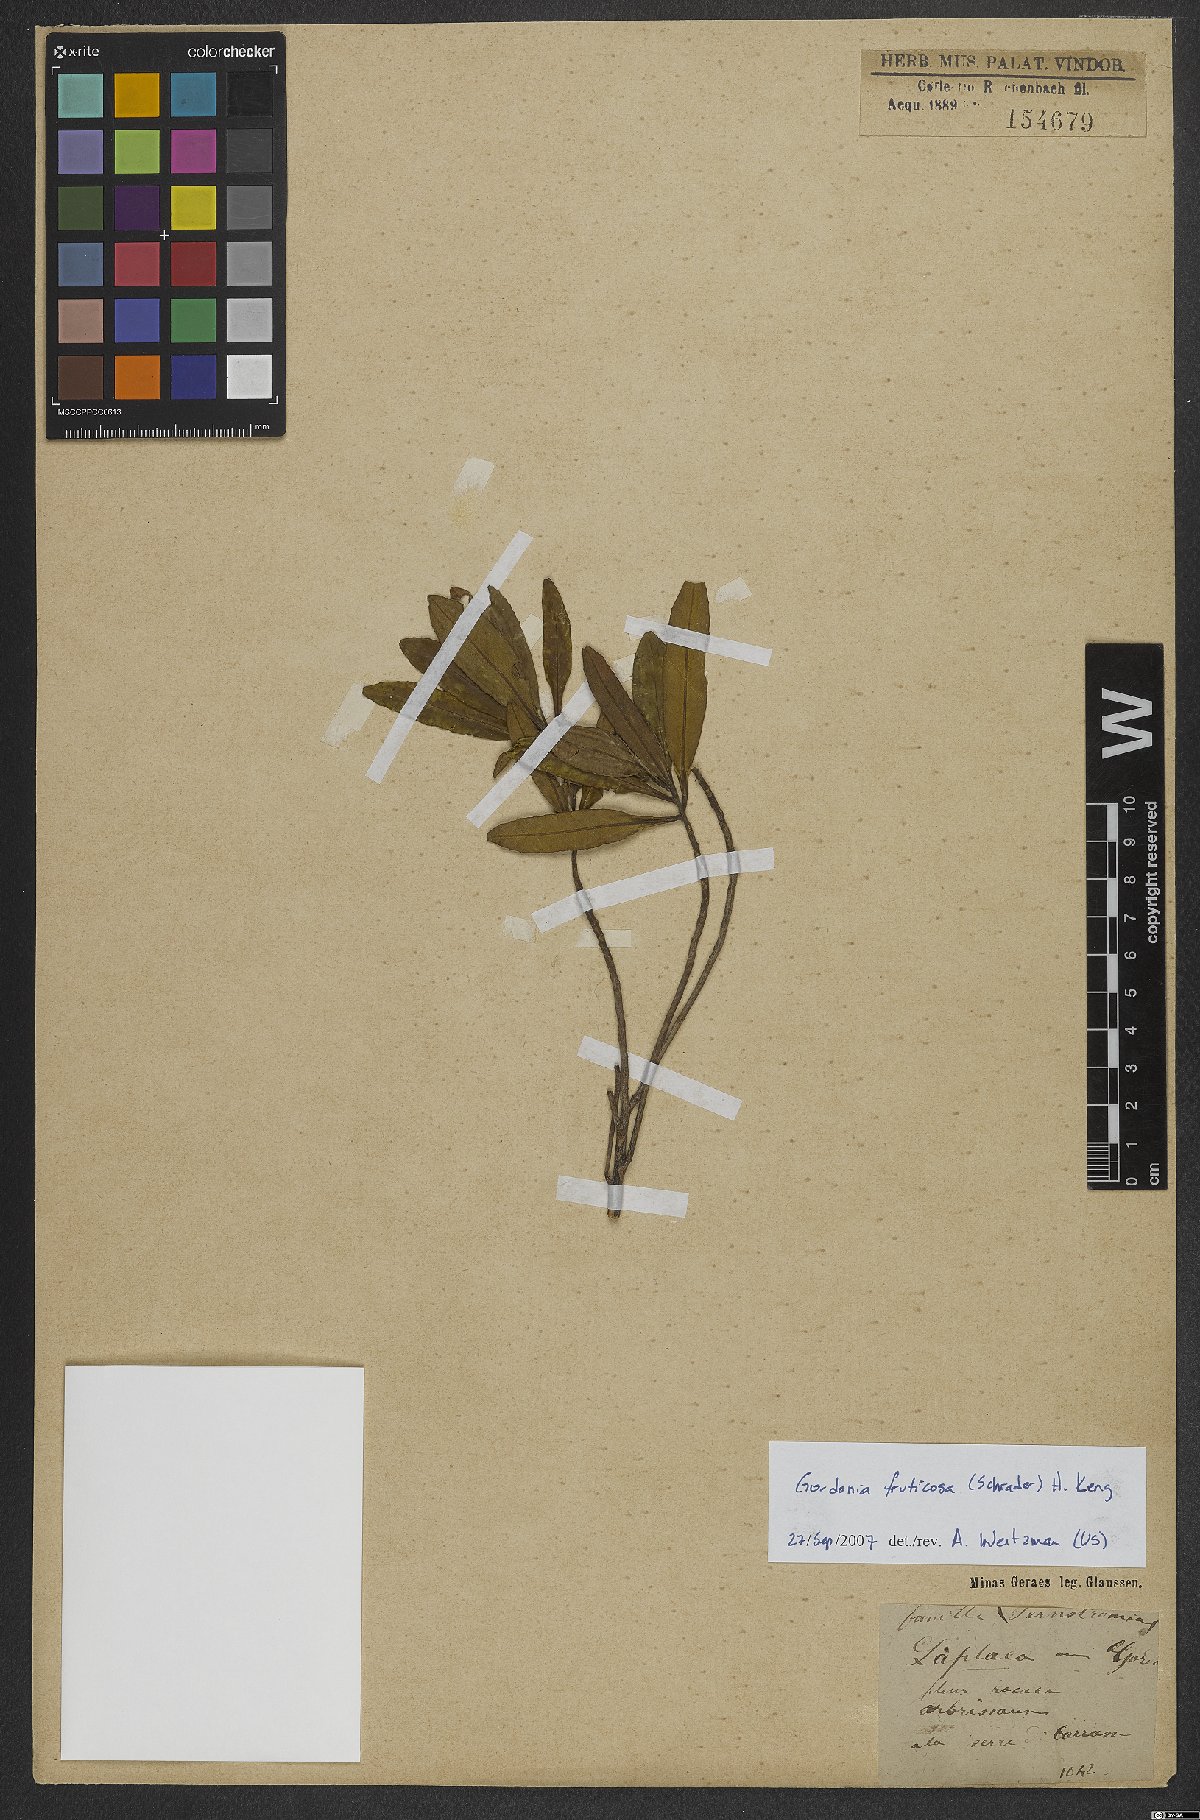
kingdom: Plantae
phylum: Tracheophyta
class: Magnoliopsida
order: Ericales
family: Theaceae
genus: Gordonia
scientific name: Gordonia fruticosa
